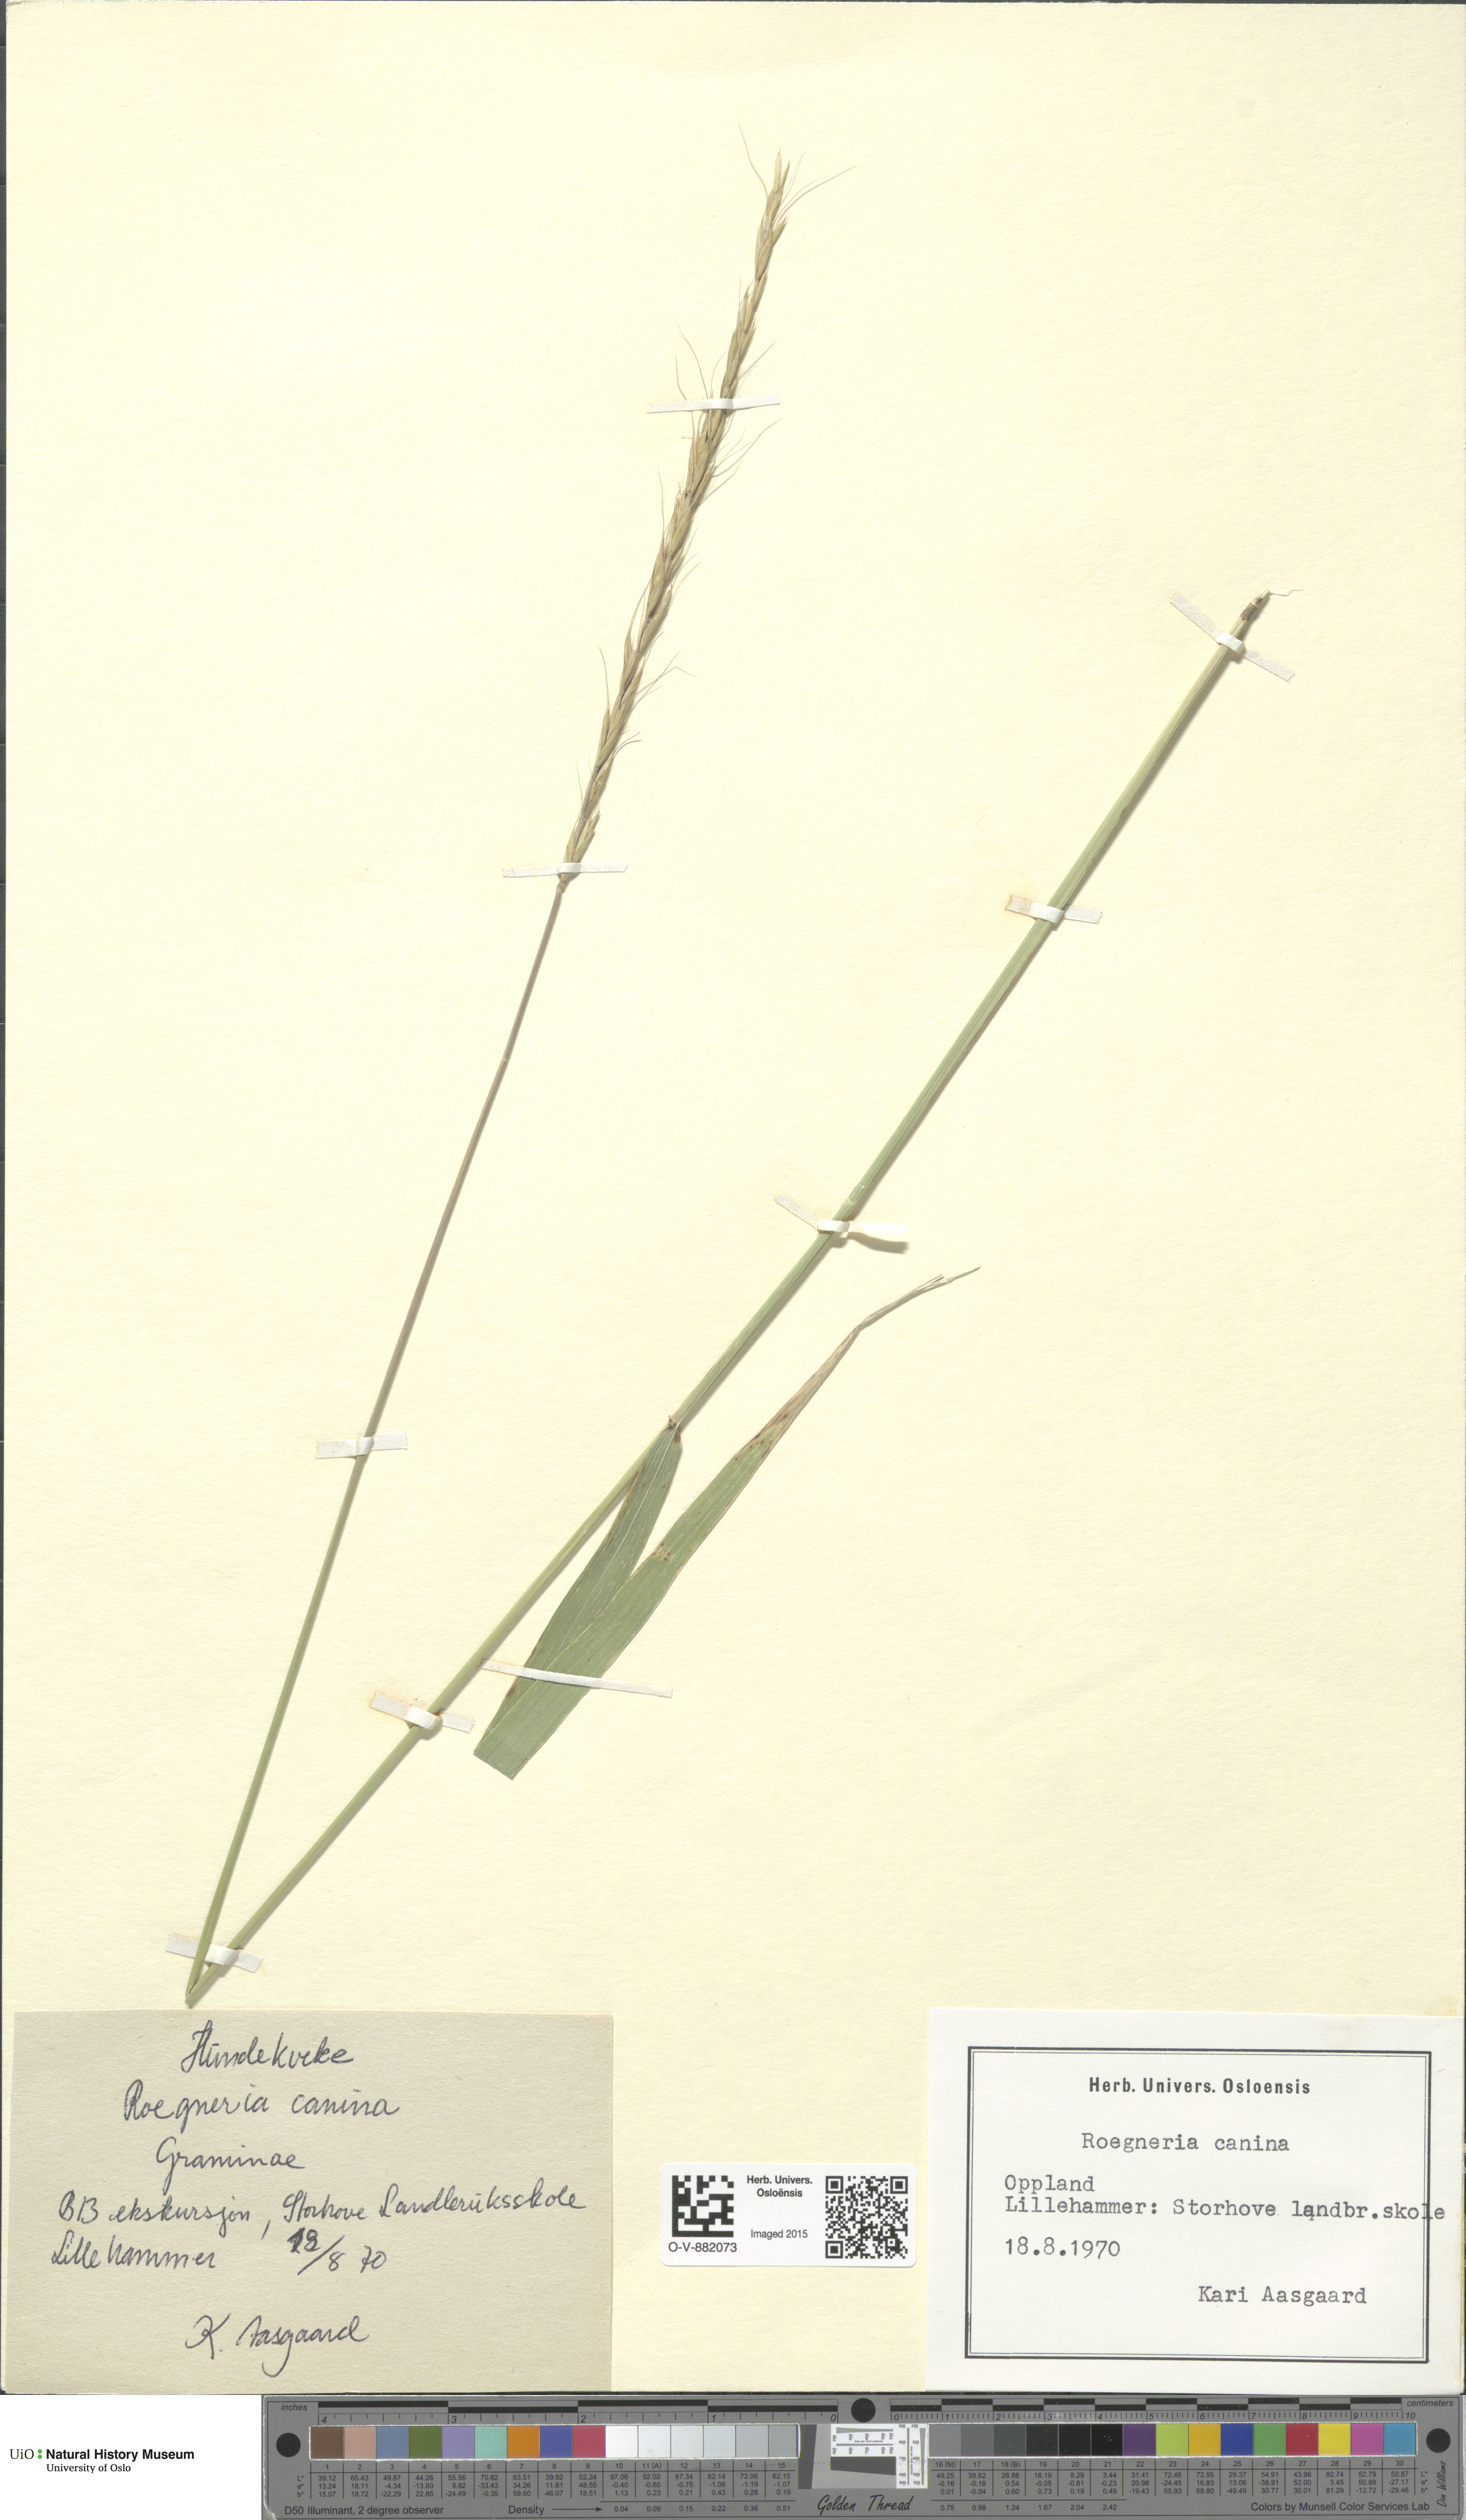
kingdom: Plantae
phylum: Tracheophyta
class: Liliopsida
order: Poales
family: Poaceae
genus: Elymus
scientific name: Elymus caninus
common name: Bearded couch
